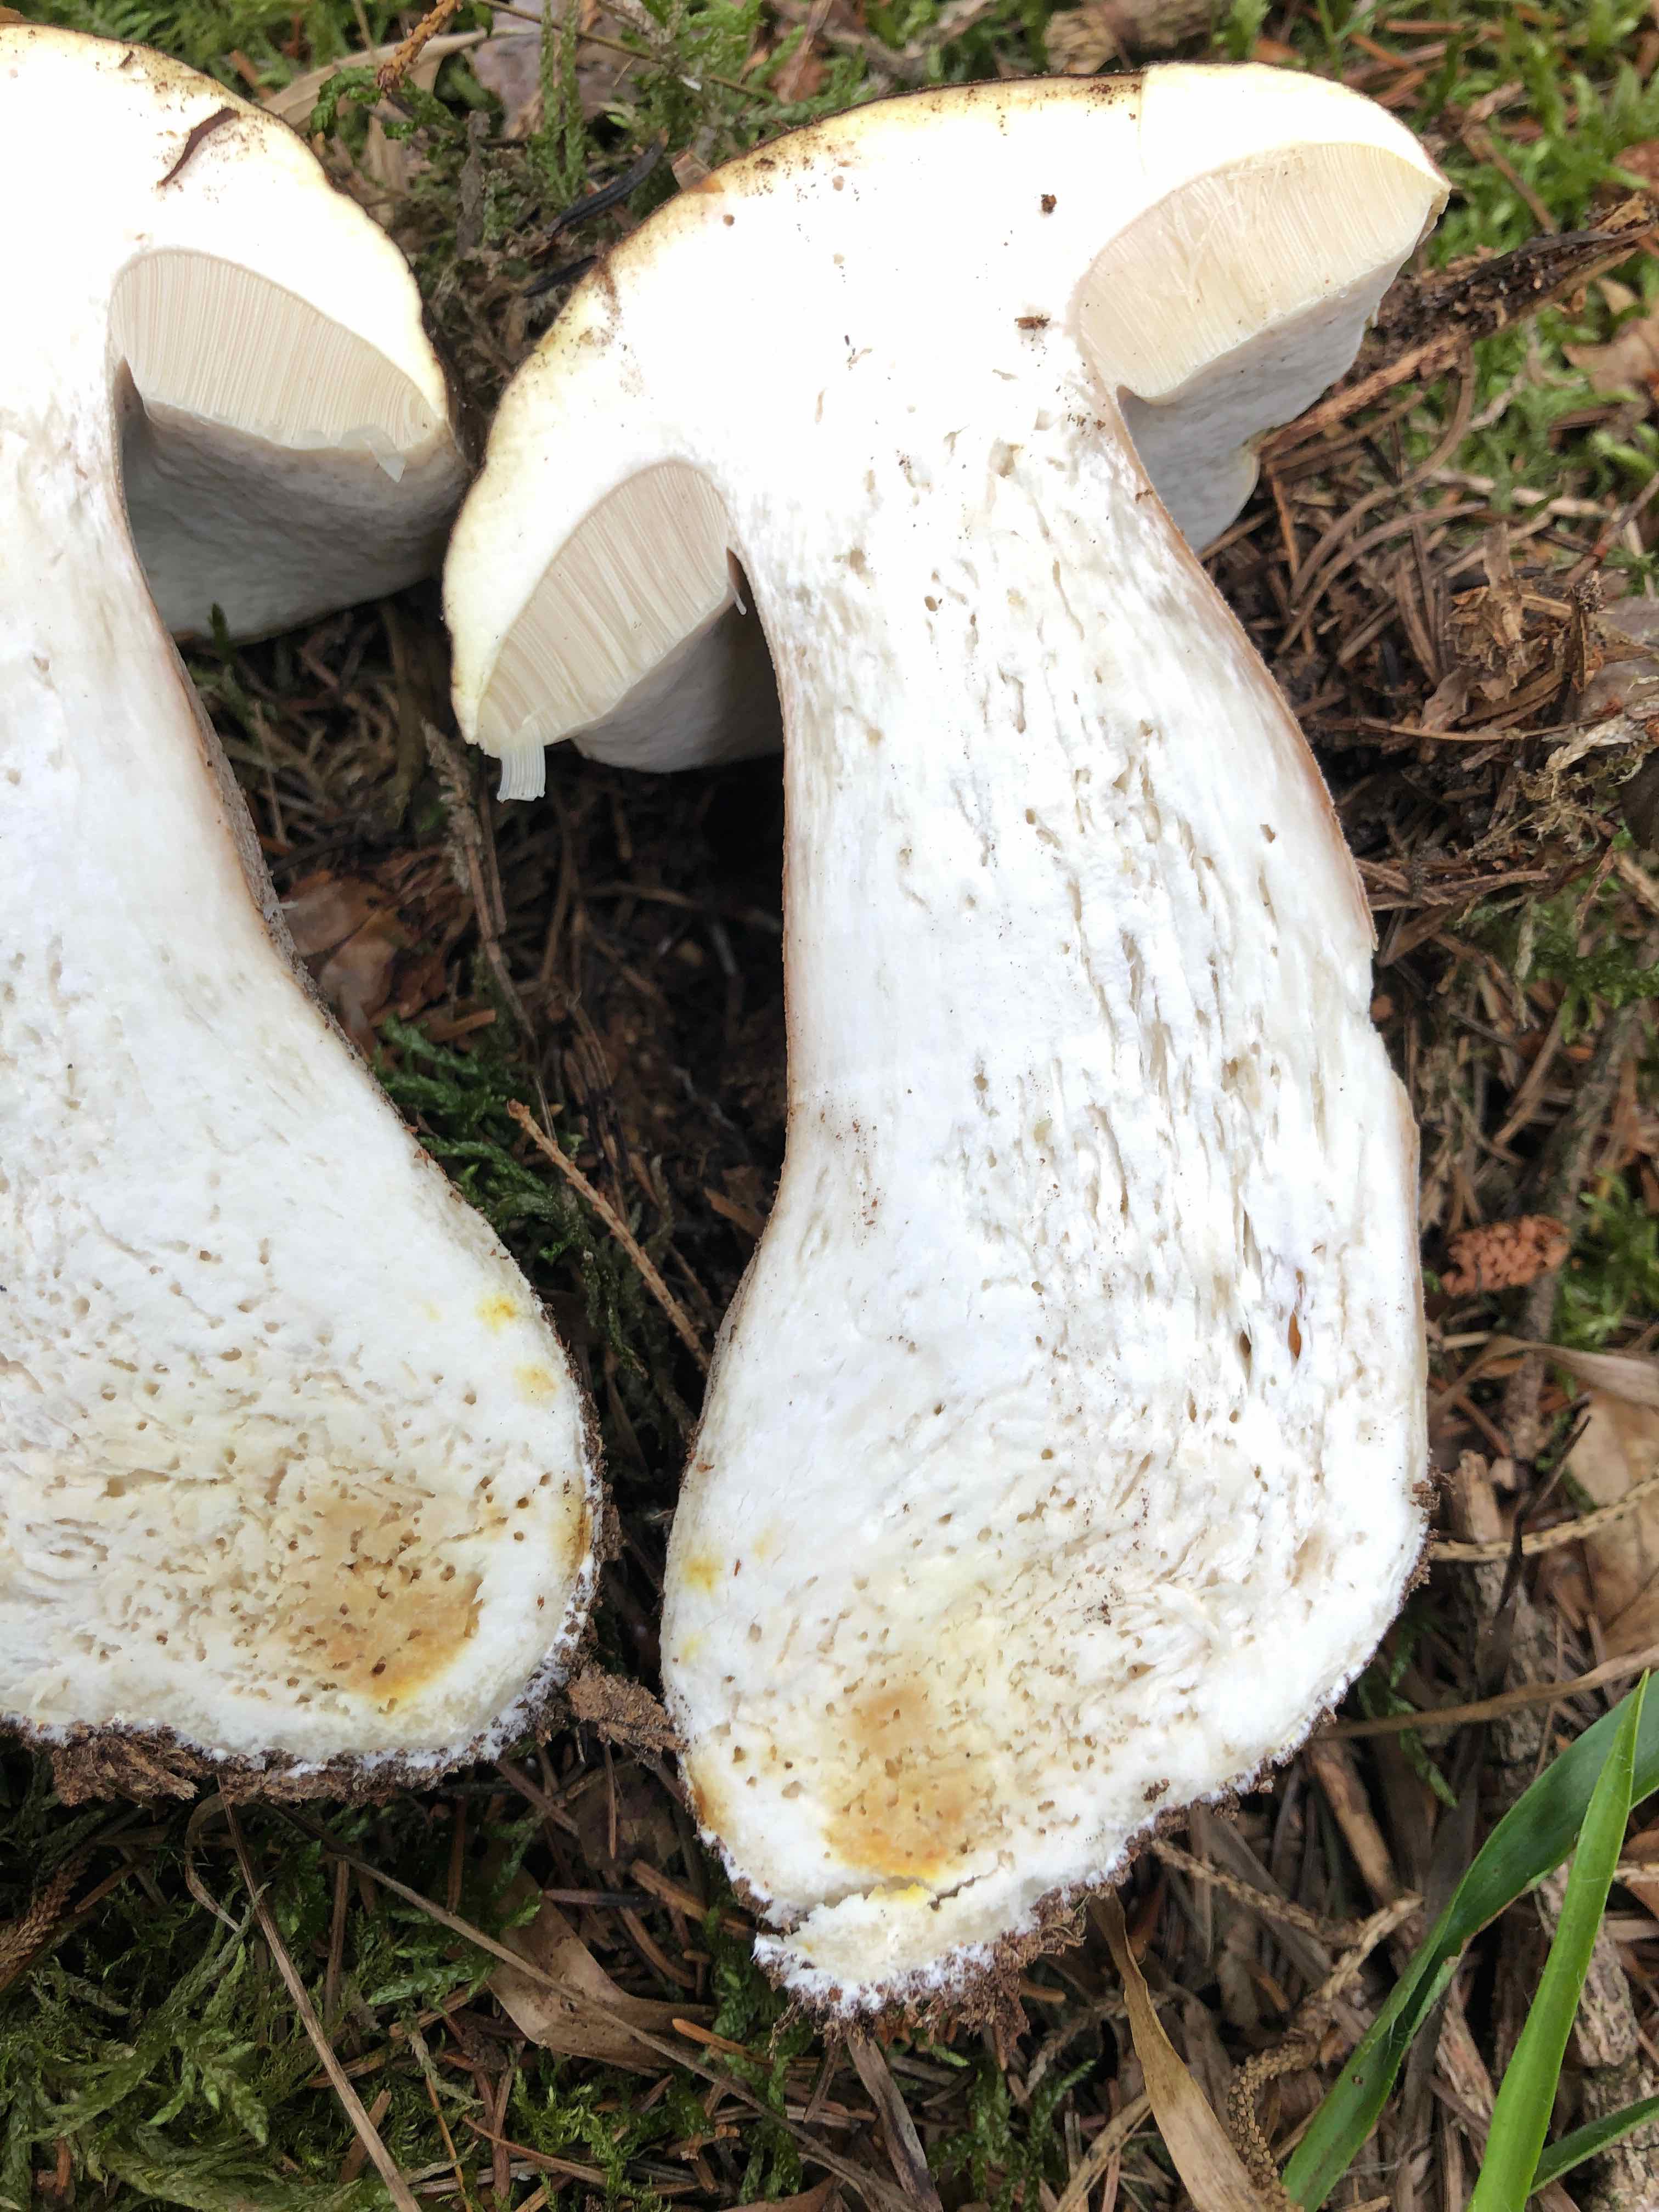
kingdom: Fungi
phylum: Basidiomycota
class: Agaricomycetes
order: Boletales
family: Boletaceae
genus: Boletus
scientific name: Boletus edulis
